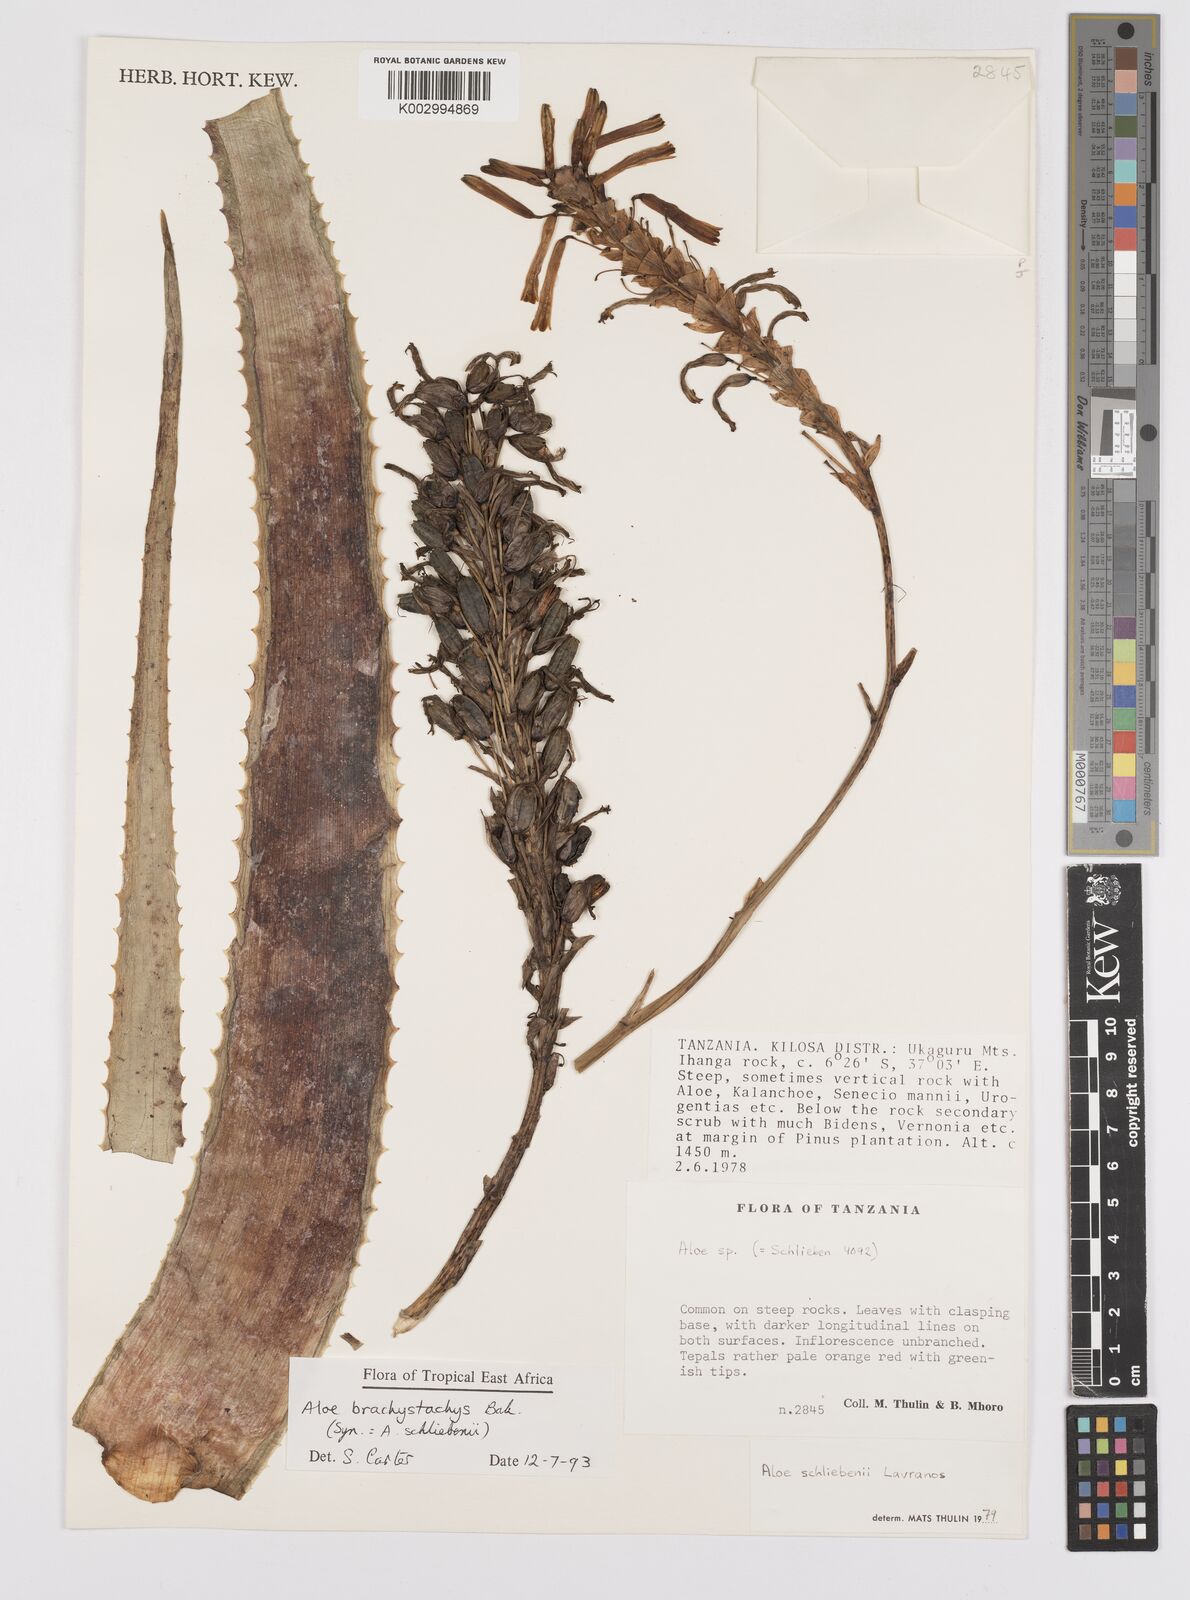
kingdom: Plantae
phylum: Tracheophyta
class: Liliopsida
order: Asparagales
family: Asphodelaceae
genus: Aloe
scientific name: Aloe brachystachys
